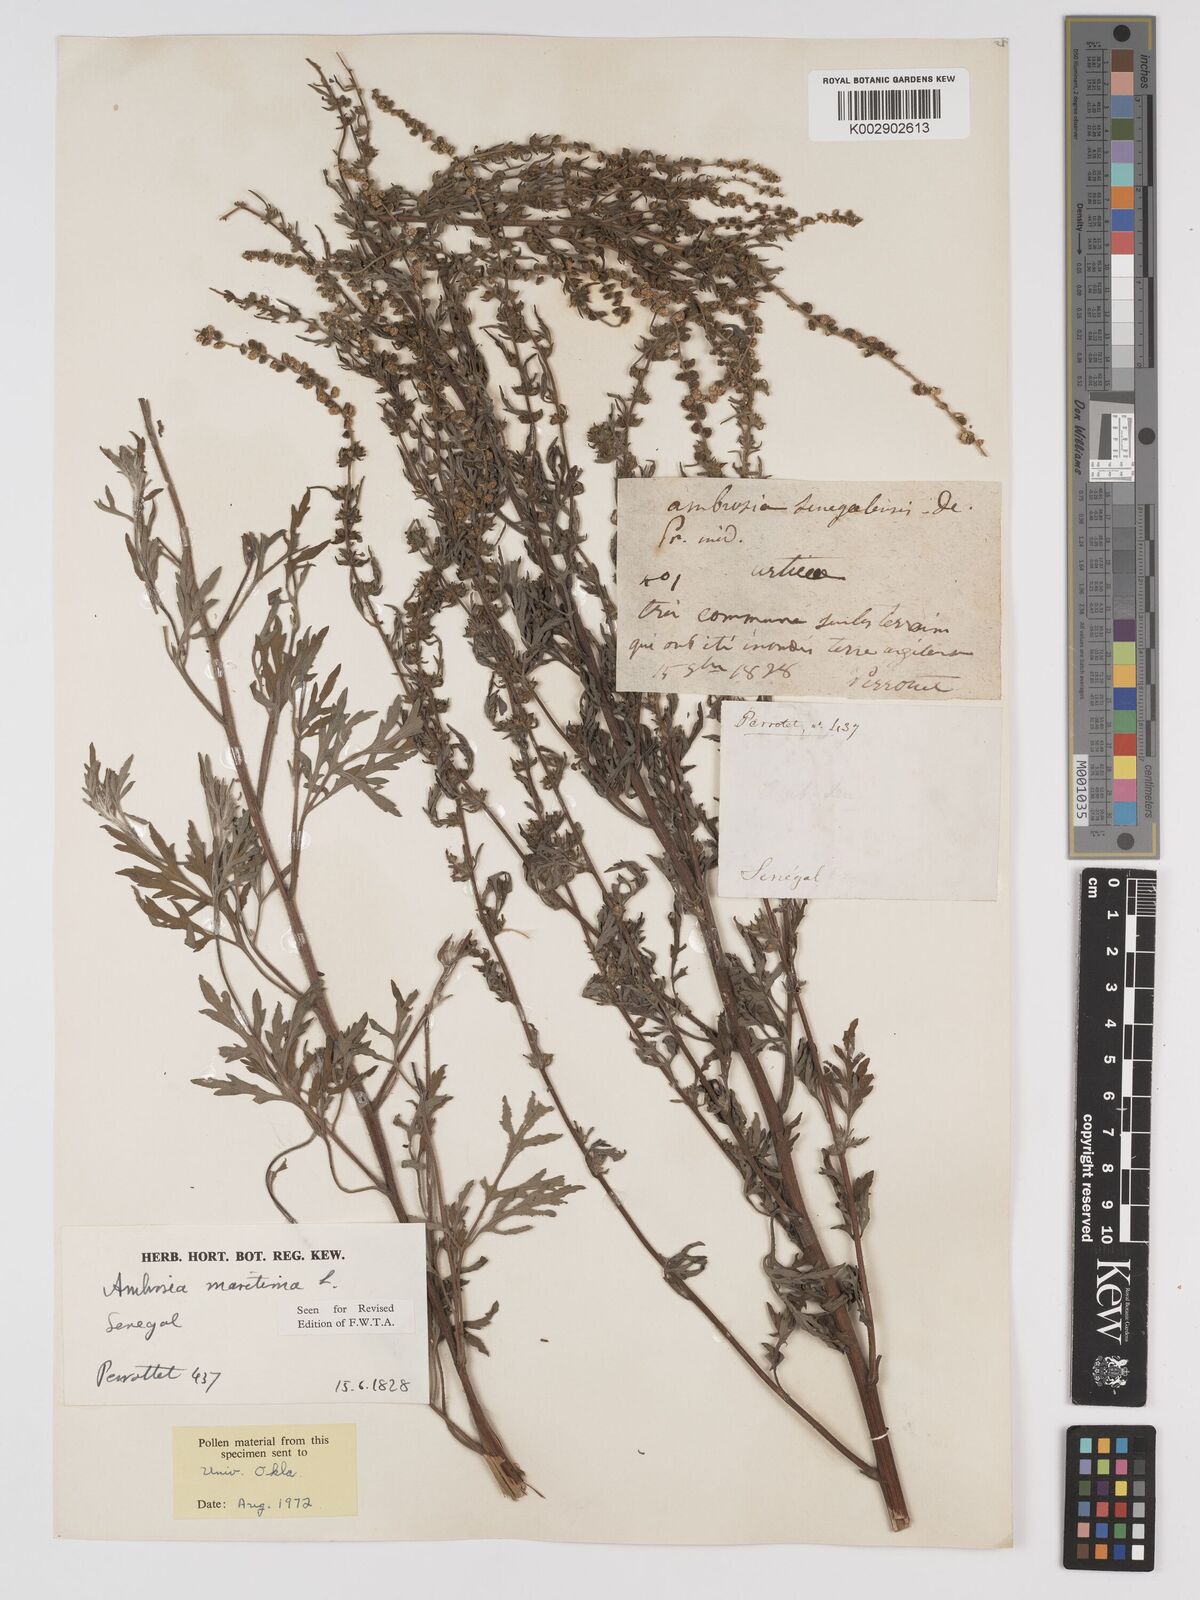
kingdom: Plantae
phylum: Tracheophyta
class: Magnoliopsida
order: Asterales
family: Asteraceae
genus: Ambrosia
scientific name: Ambrosia maritima
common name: Sea ambrosia
